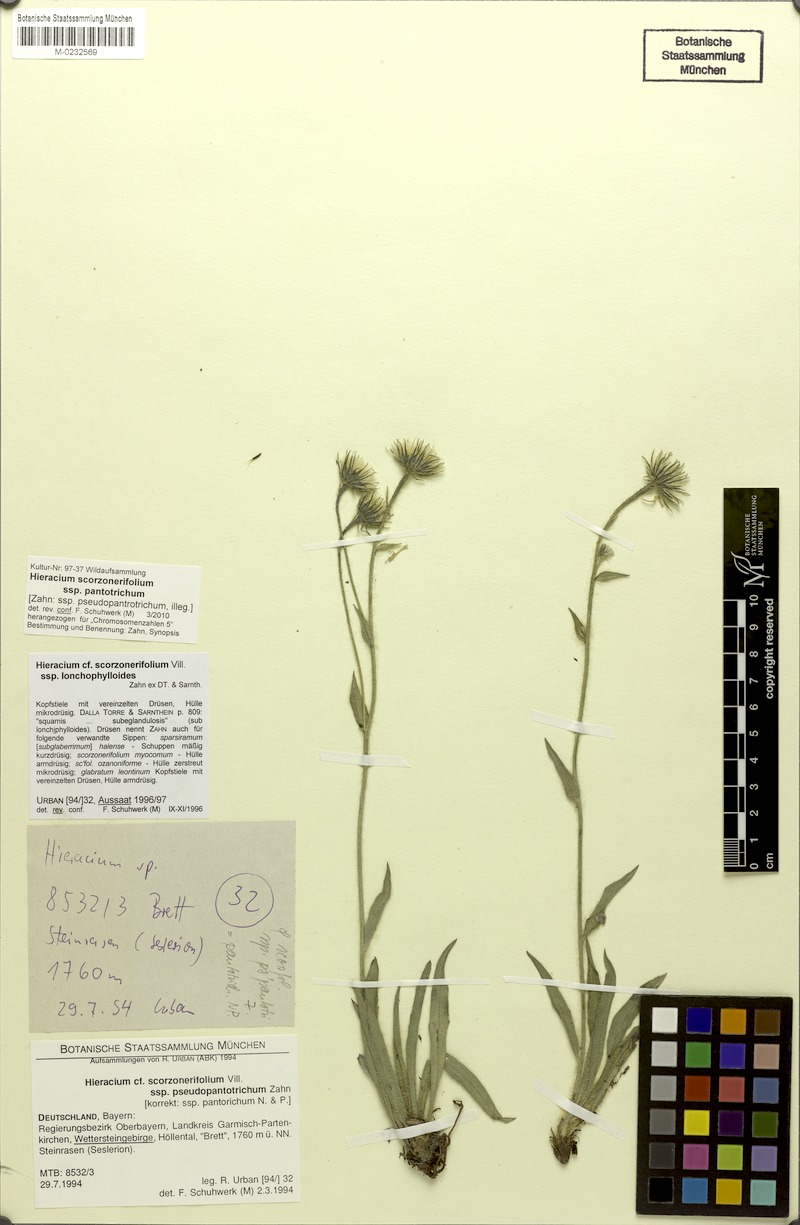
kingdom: Plantae
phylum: Tracheophyta
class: Magnoliopsida
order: Asterales
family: Asteraceae
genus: Hieracium
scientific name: Hieracium scorzonerifolium
